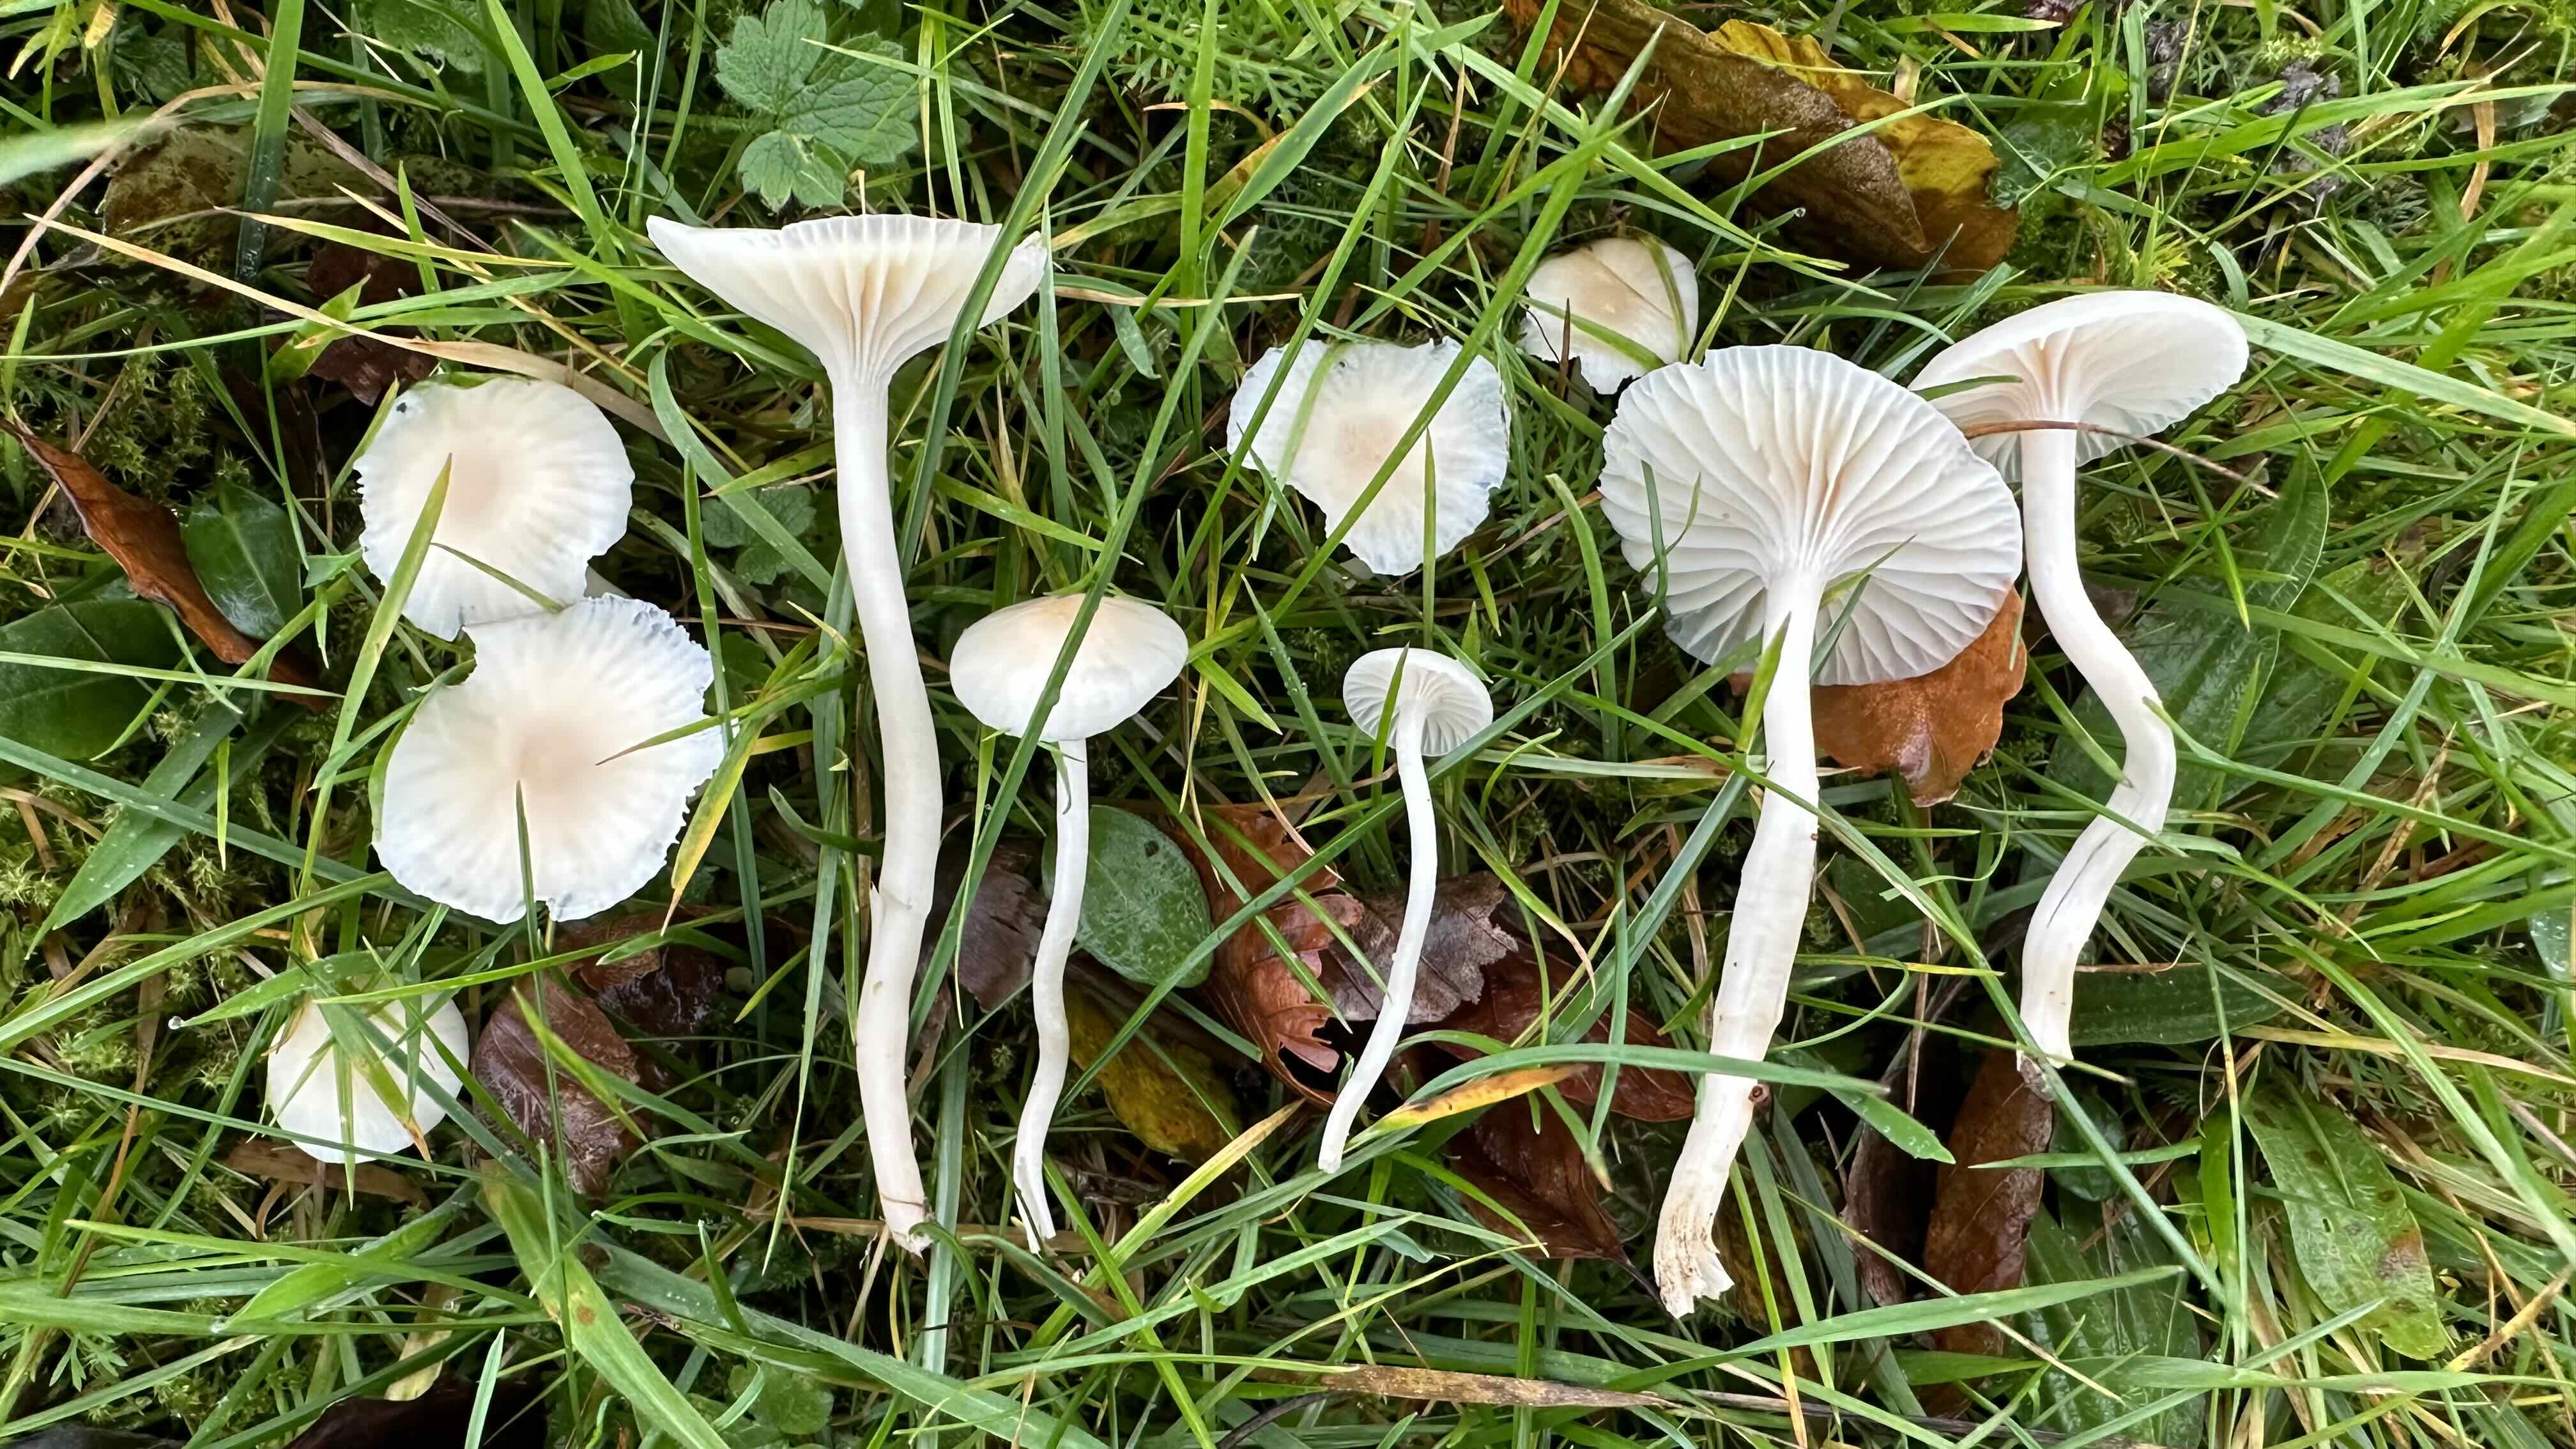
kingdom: Fungi
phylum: Basidiomycota
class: Agaricomycetes
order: Agaricales
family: Hygrophoraceae
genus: Cuphophyllus
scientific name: Cuphophyllus virgineus
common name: snehvid vokshat
